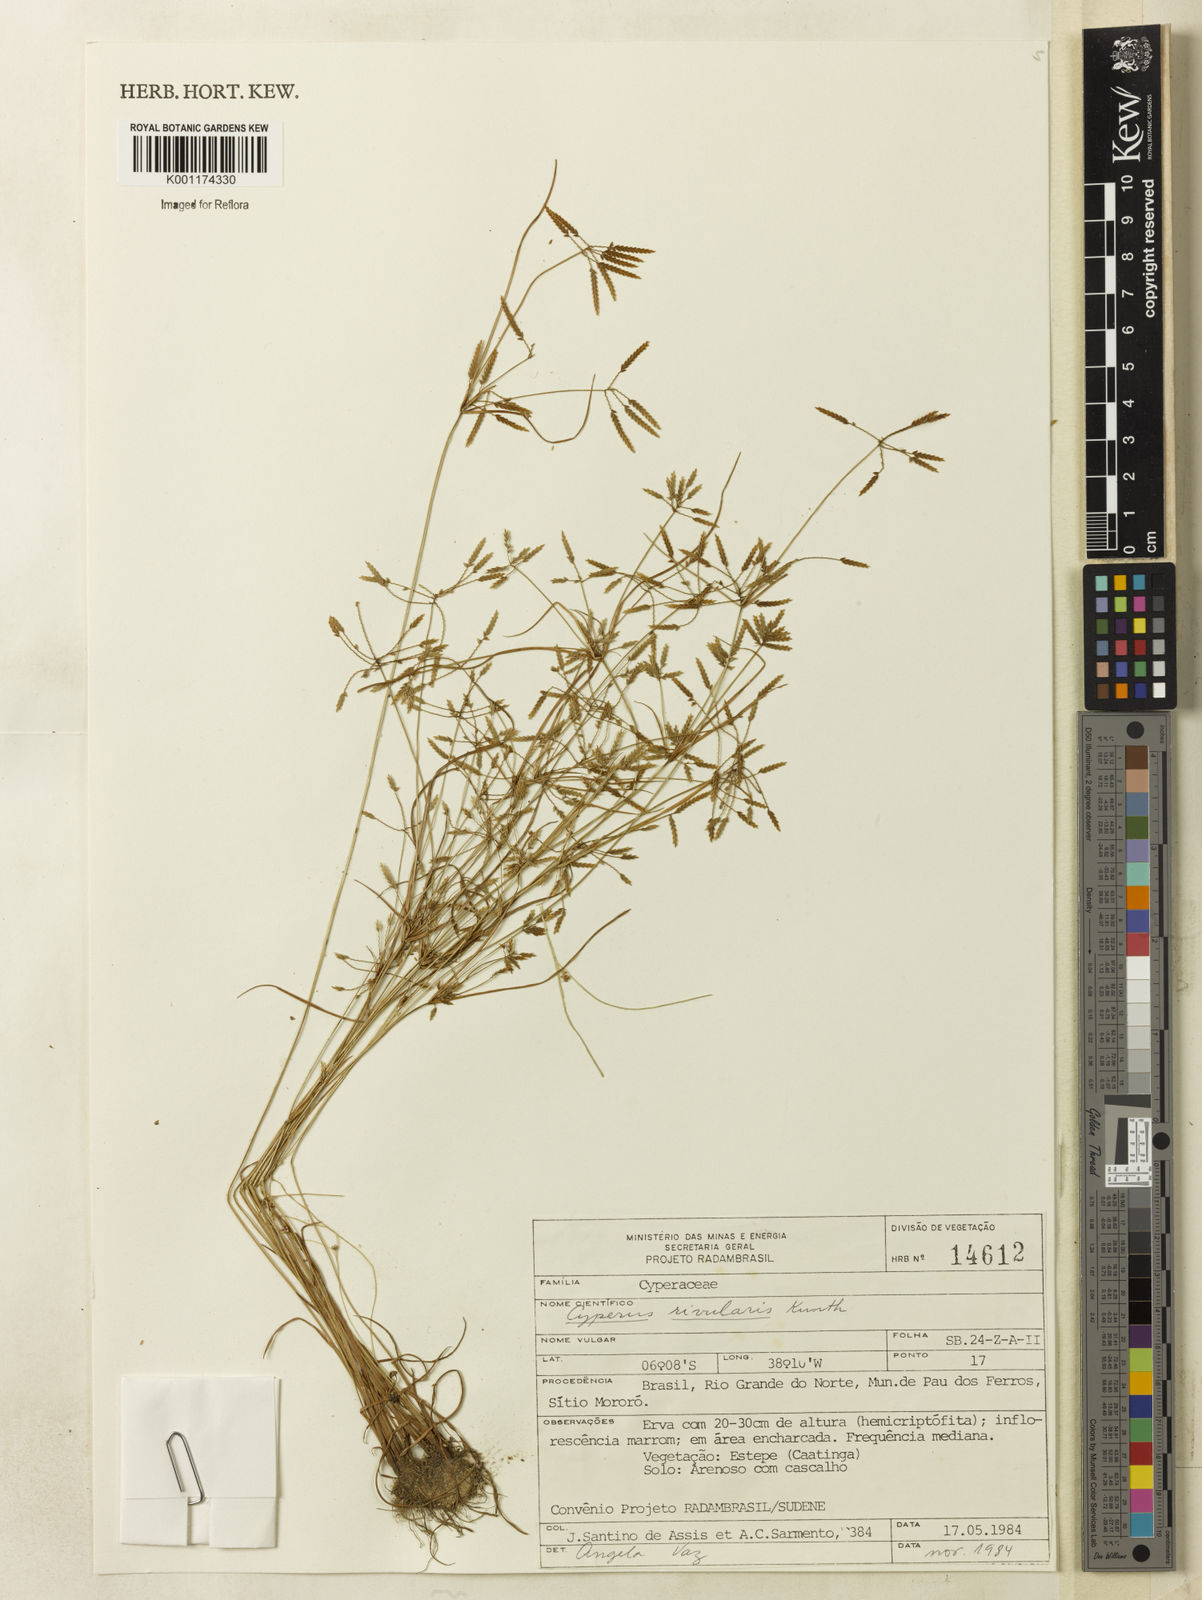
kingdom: Plantae
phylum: Tracheophyta
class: Liliopsida
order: Poales
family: Cyperaceae
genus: Cyperus
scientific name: Cyperus fugax
